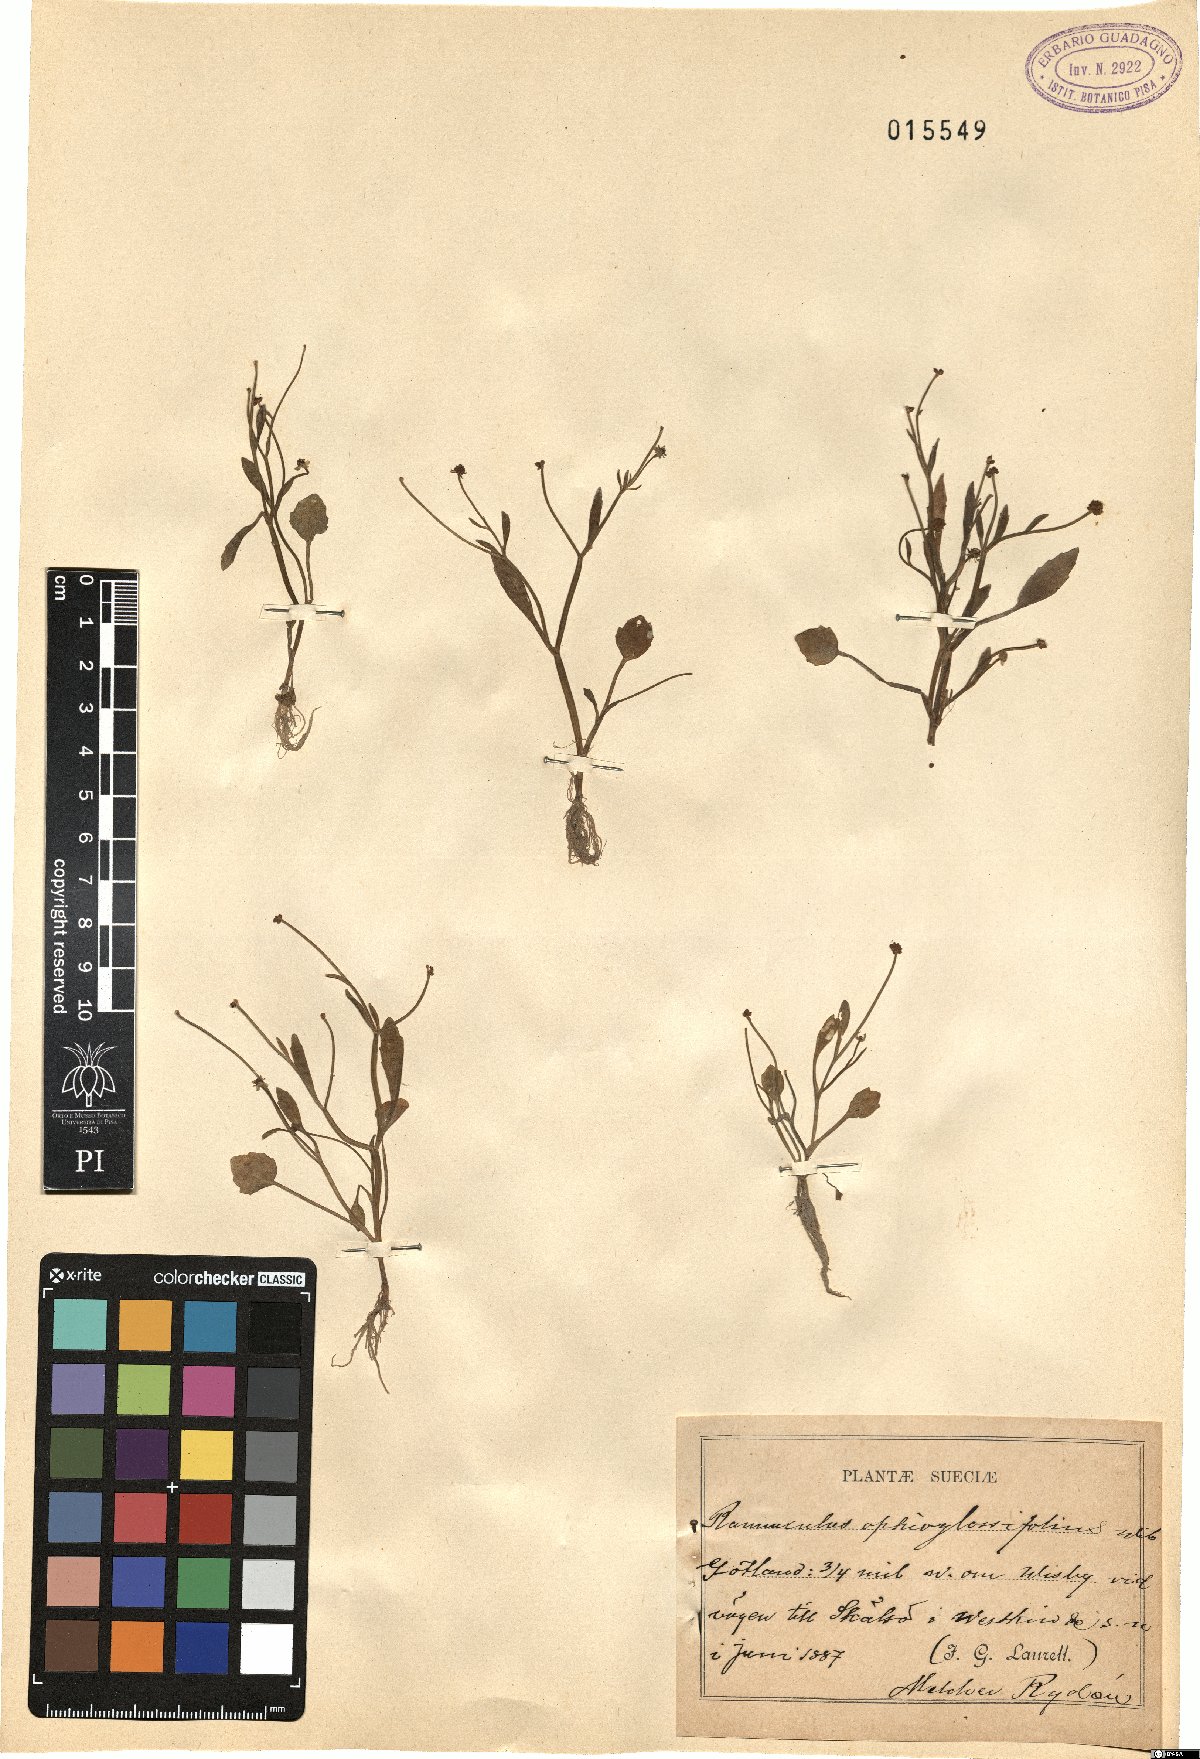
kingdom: Plantae
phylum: Tracheophyta
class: Magnoliopsida
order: Ranunculales
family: Ranunculaceae
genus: Ranunculus
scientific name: Ranunculus ophioglossifolius
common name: Adder's-tongue spearwort
